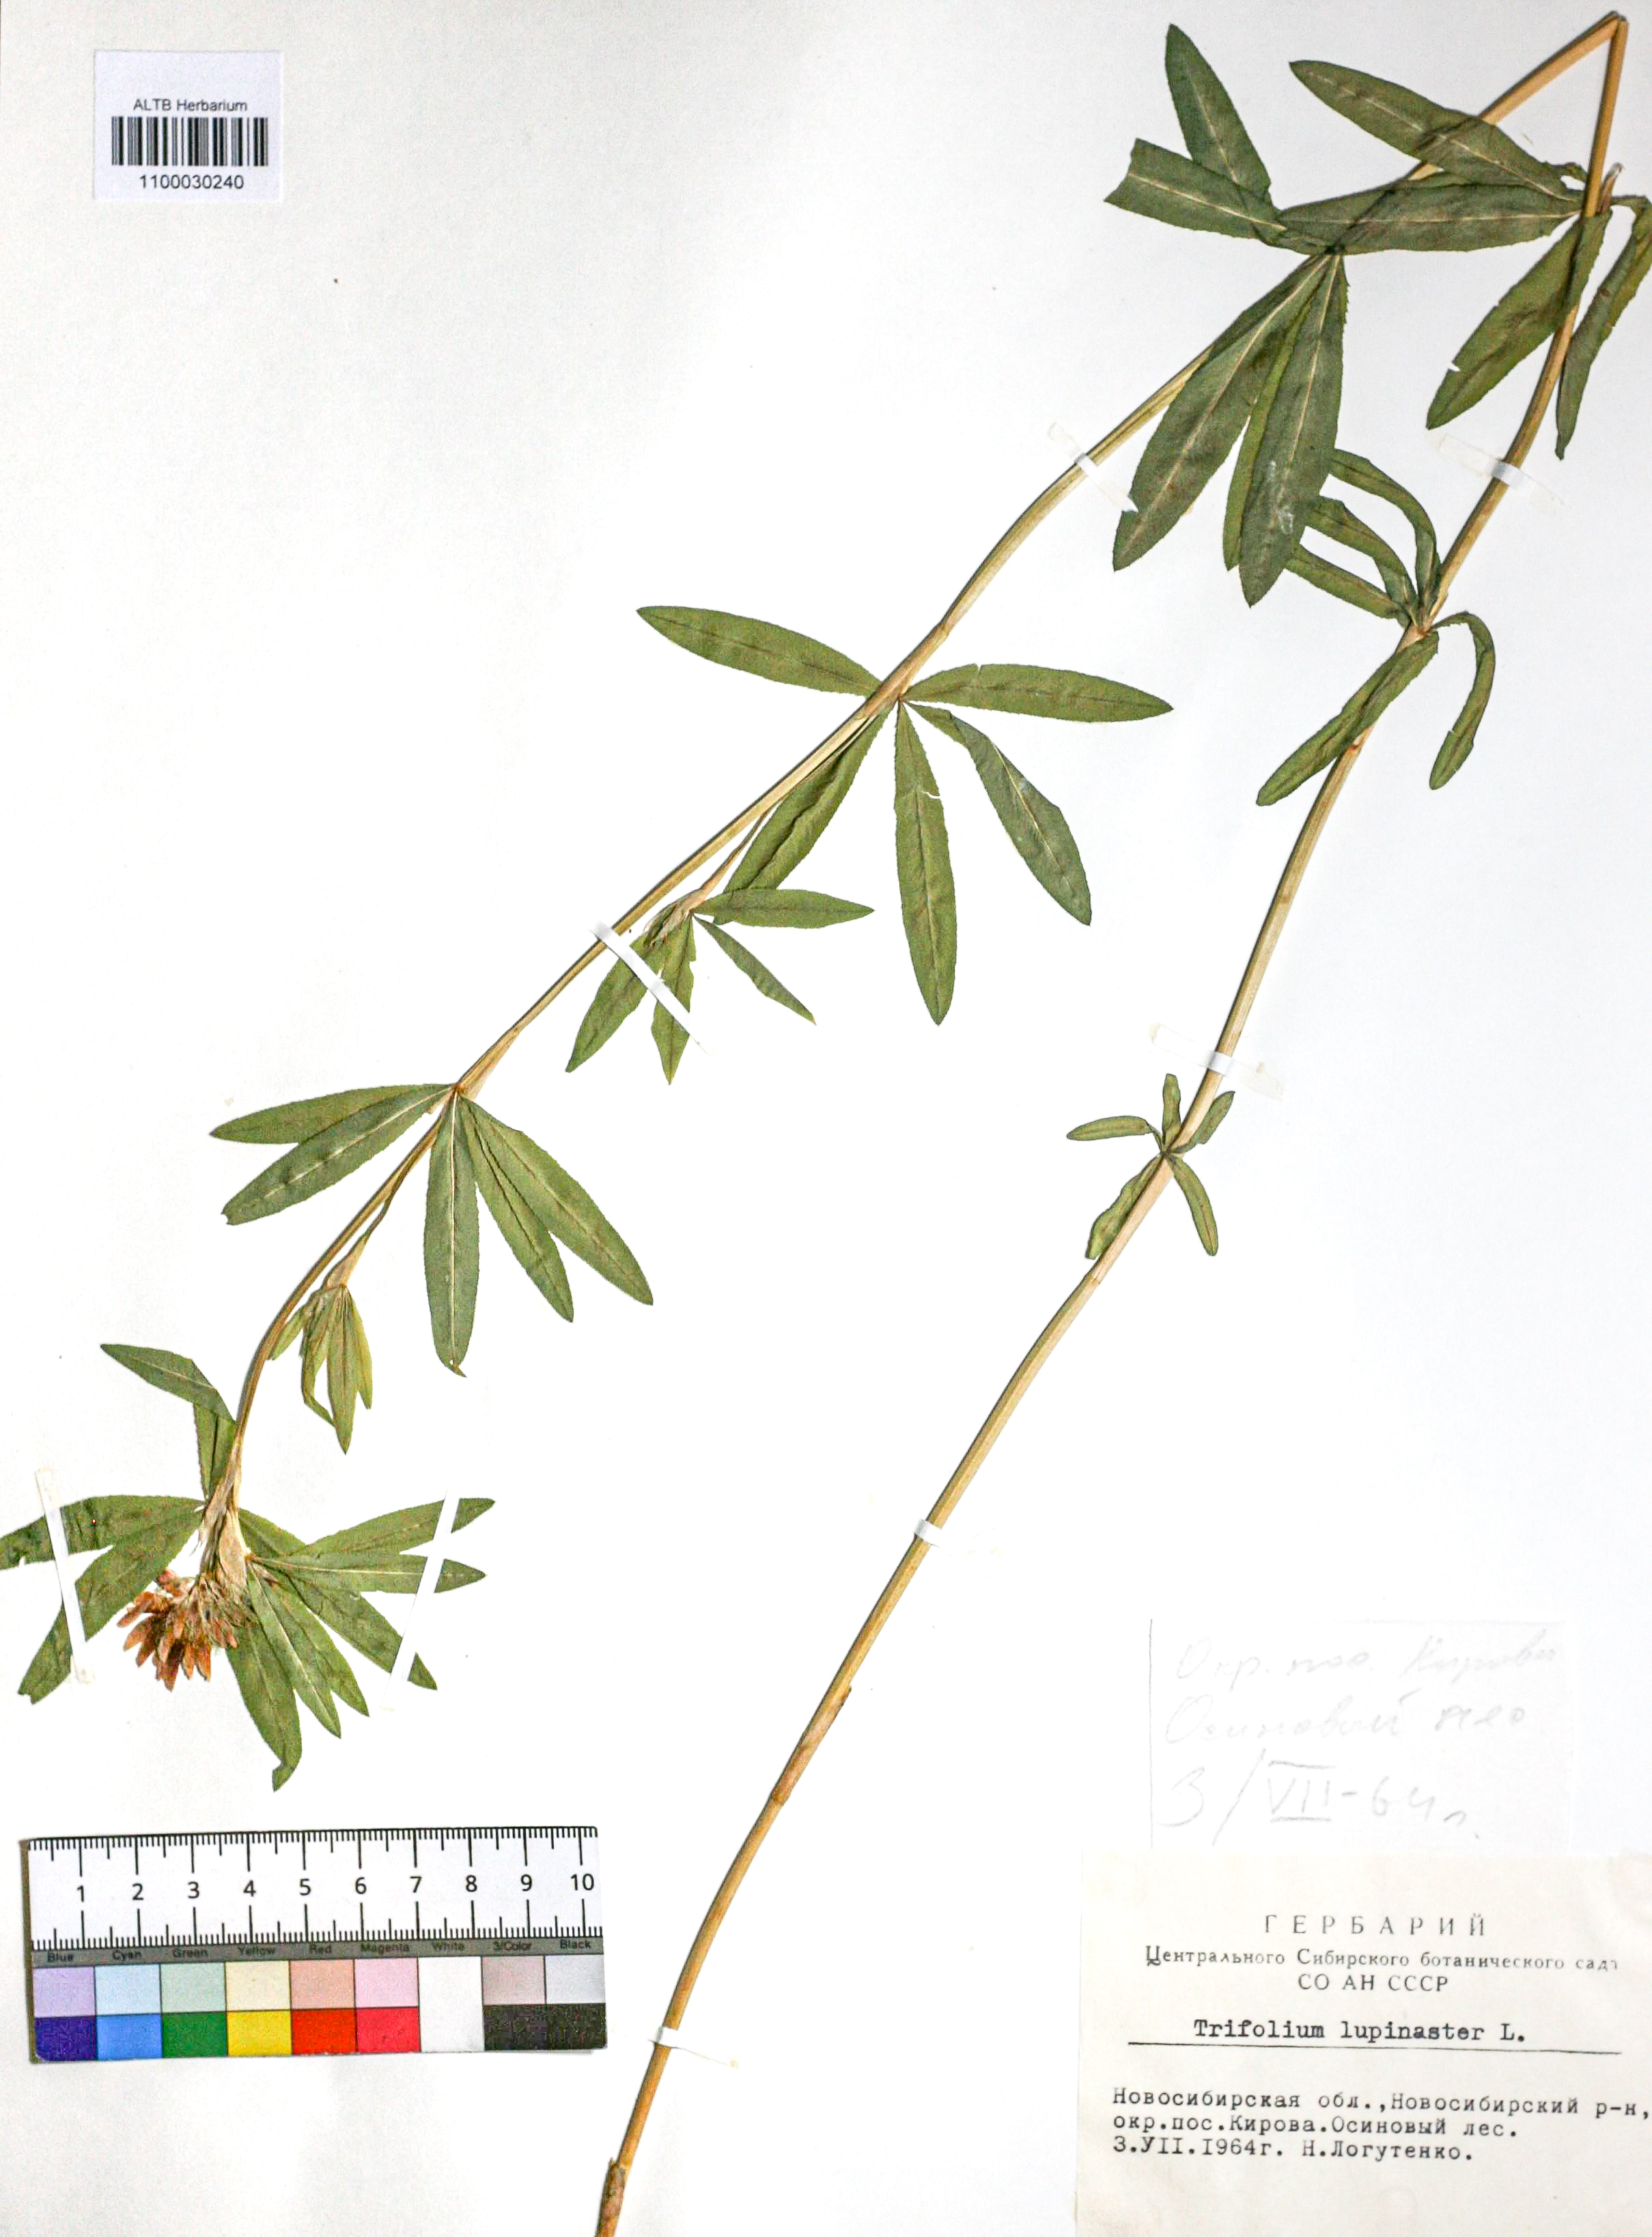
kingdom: Plantae
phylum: Tracheophyta
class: Magnoliopsida
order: Fabales
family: Fabaceae
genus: Trifolium
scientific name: Trifolium lupinaster
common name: Lupine clover
